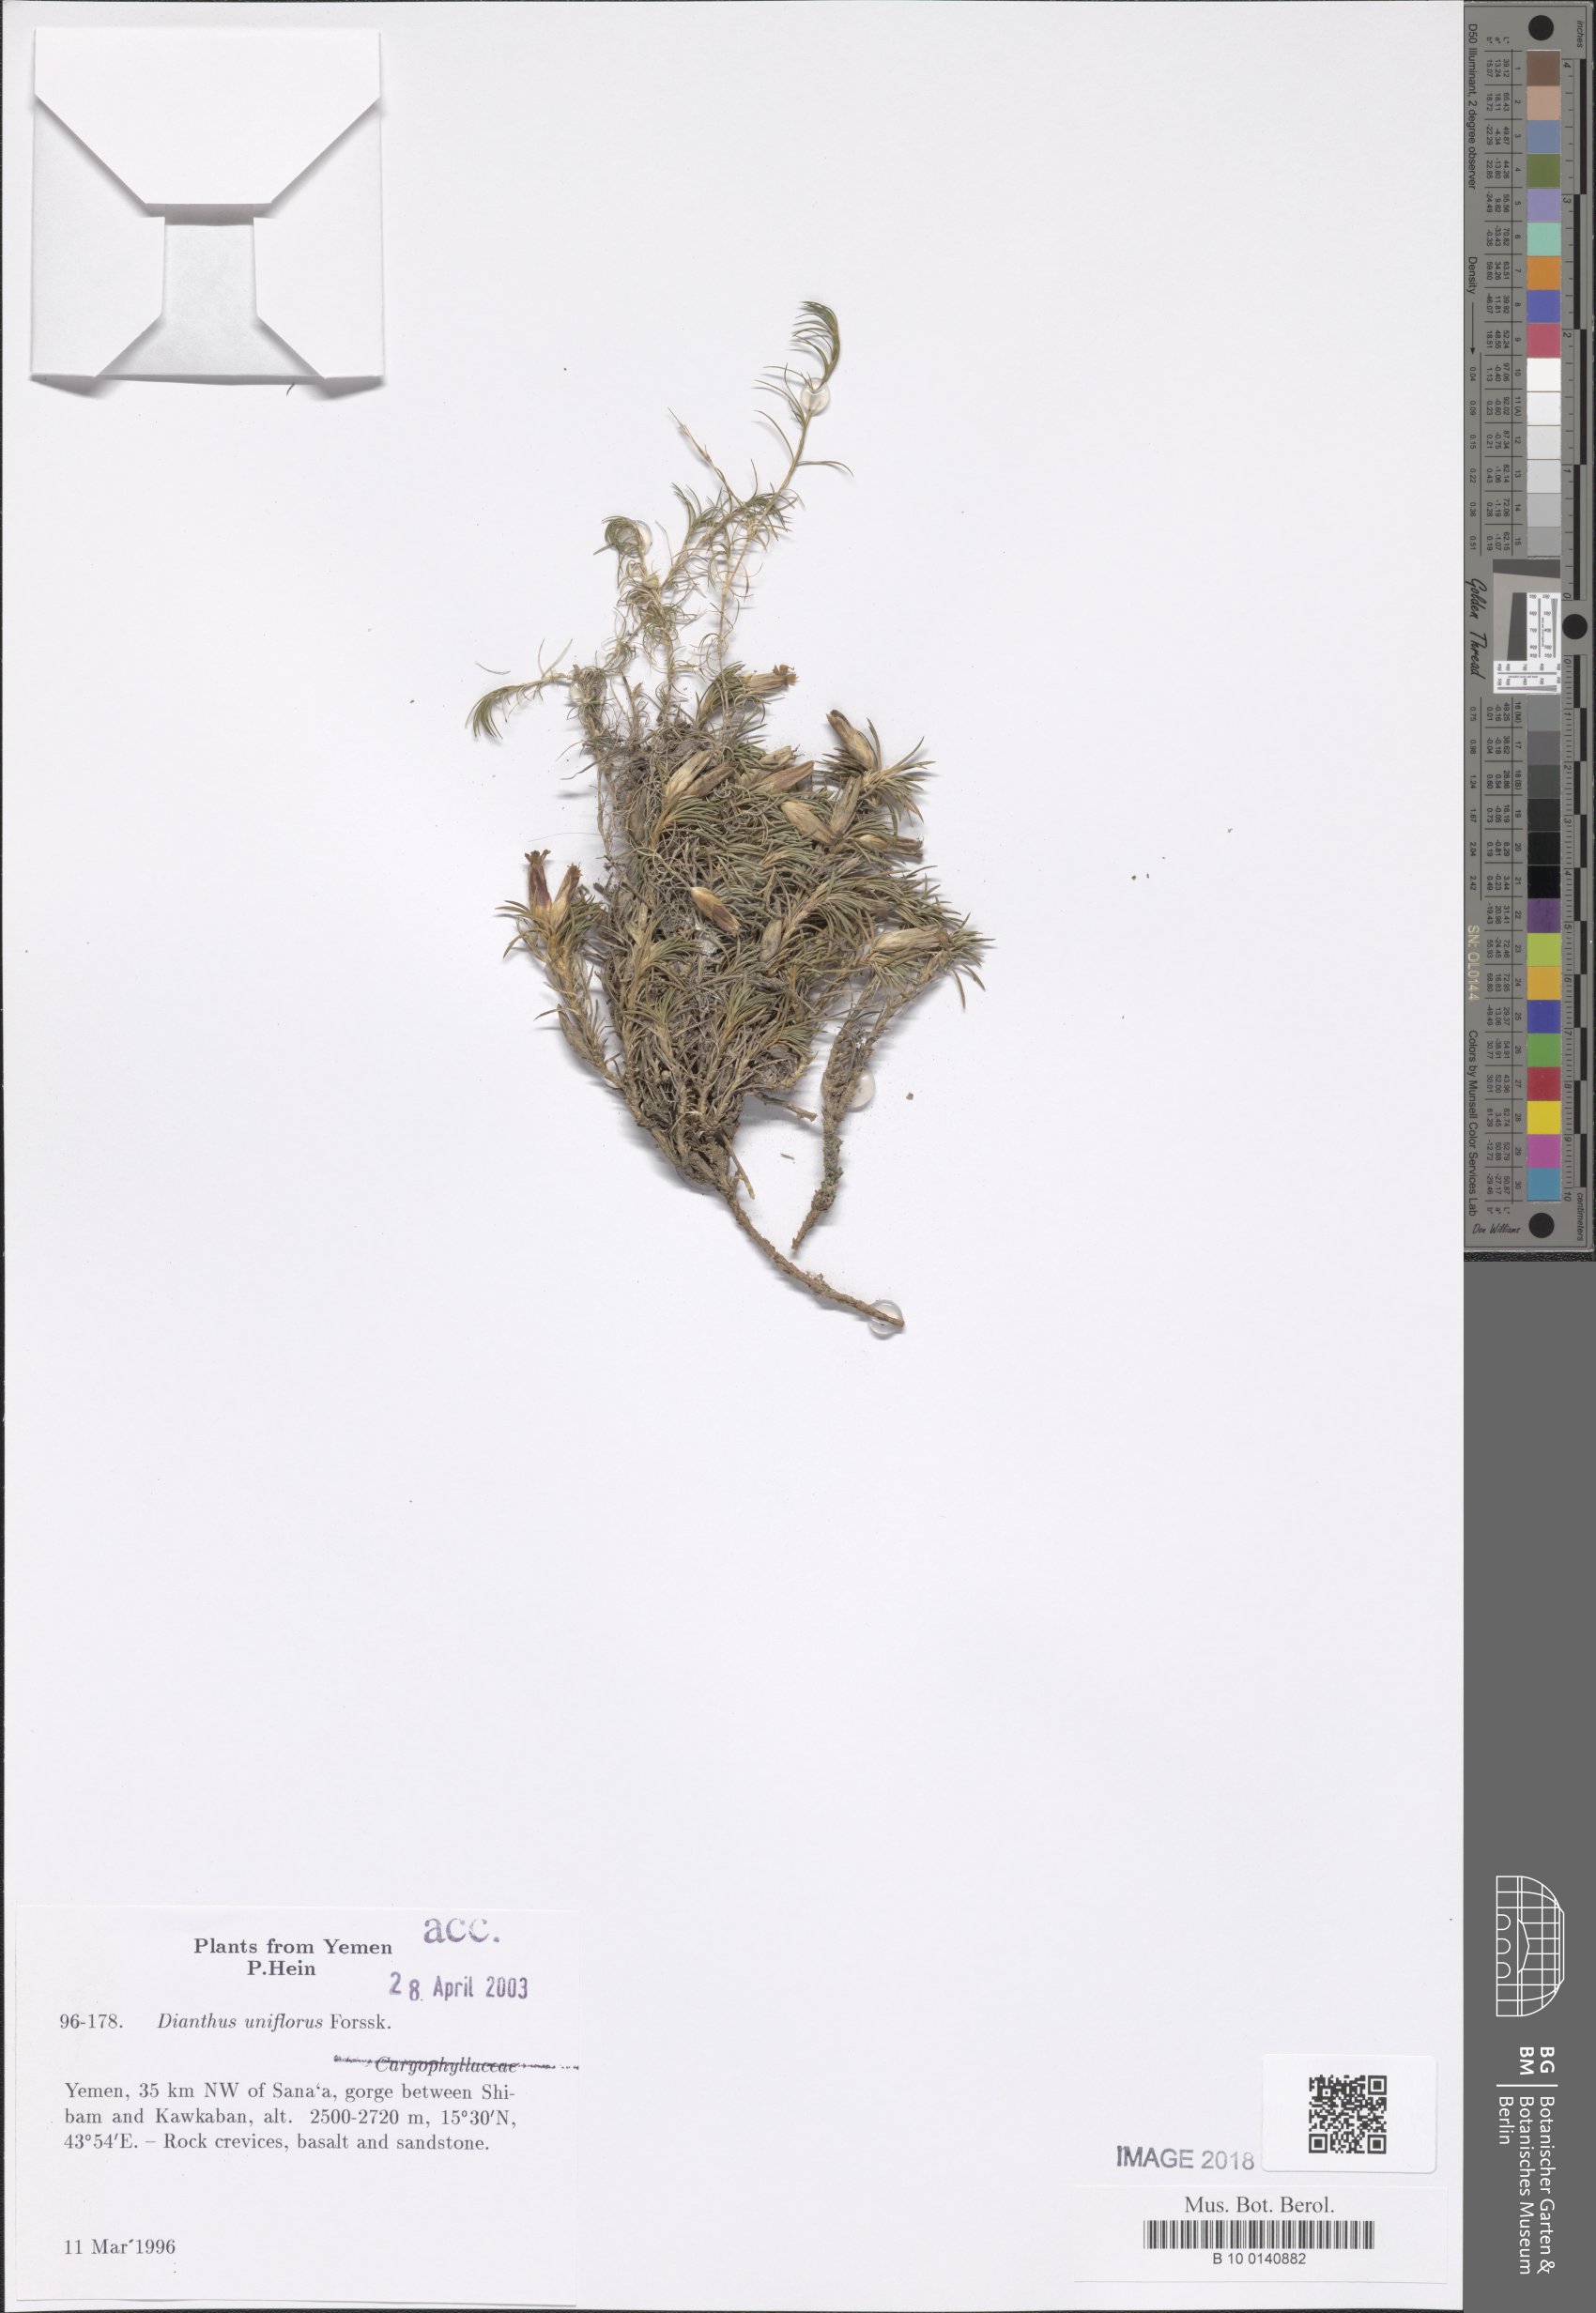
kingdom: Plantae
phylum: Tracheophyta
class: Magnoliopsida
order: Caryophyllales
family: Caryophyllaceae
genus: Dianthus
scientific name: Dianthus uniflorus
